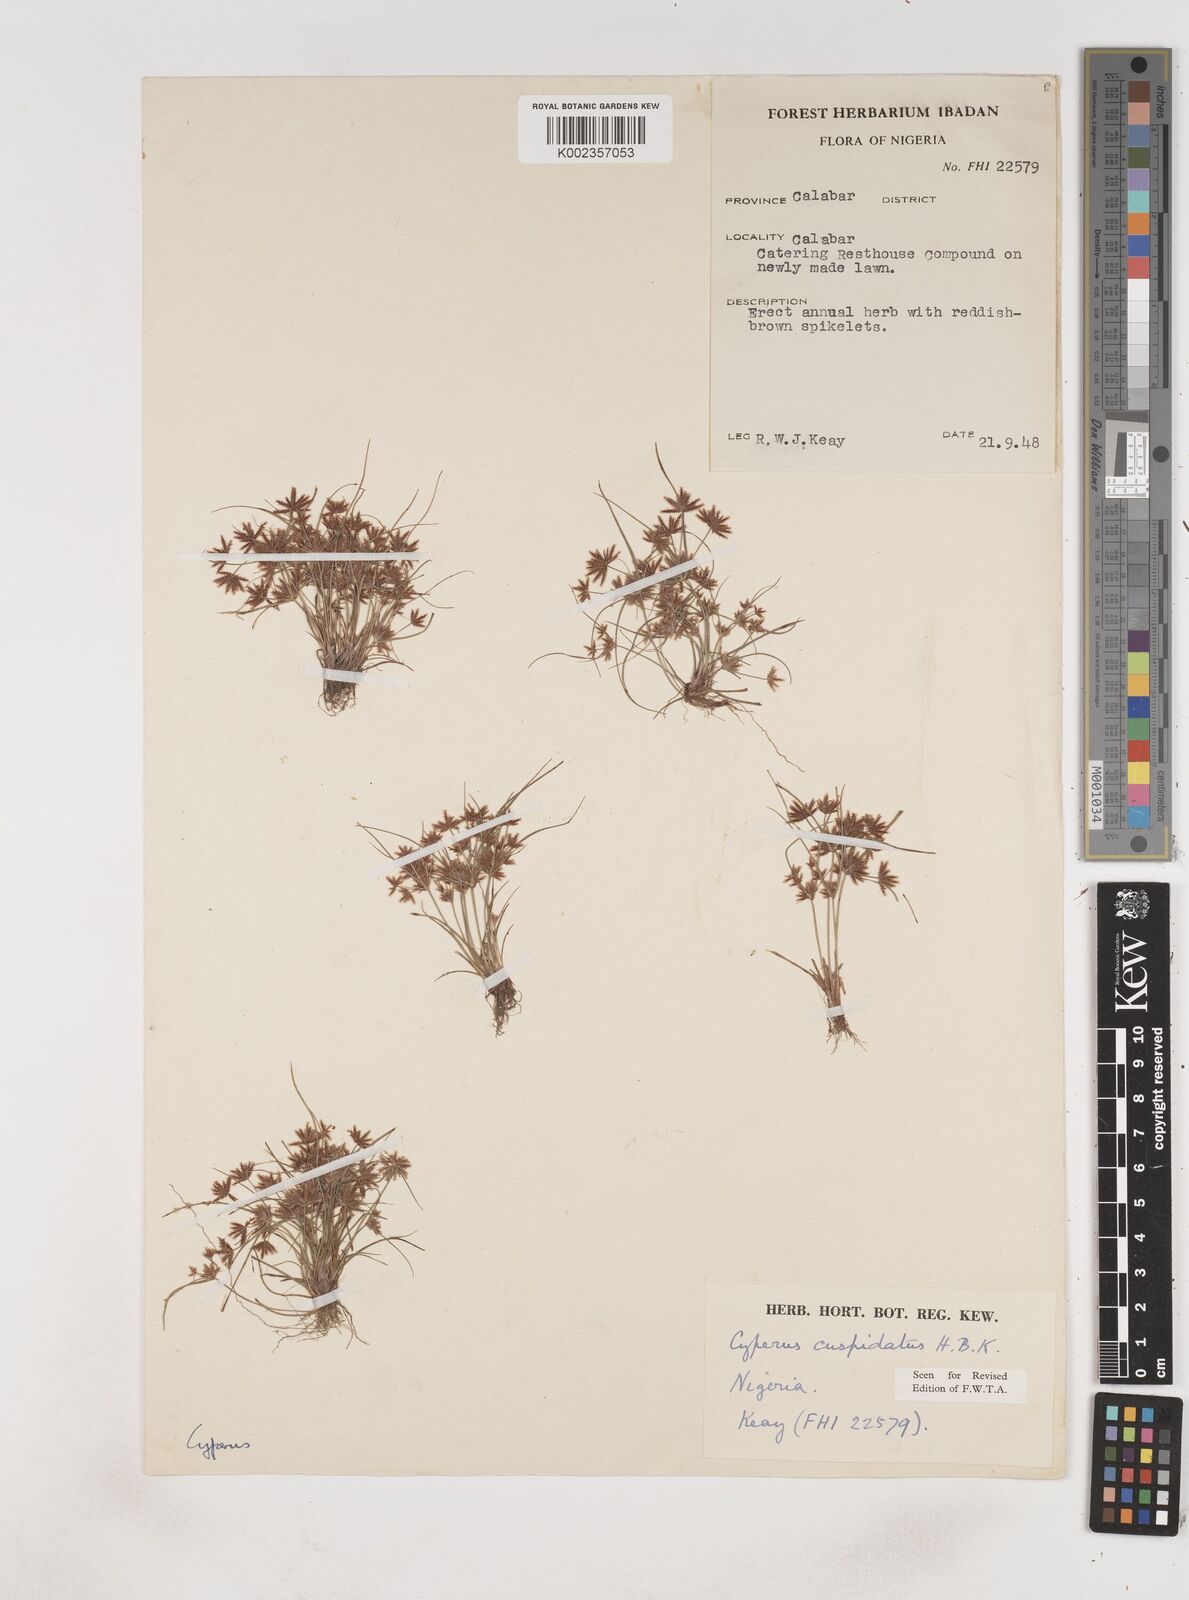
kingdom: Plantae
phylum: Tracheophyta
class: Liliopsida
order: Poales
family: Cyperaceae
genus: Cyperus
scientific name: Cyperus
